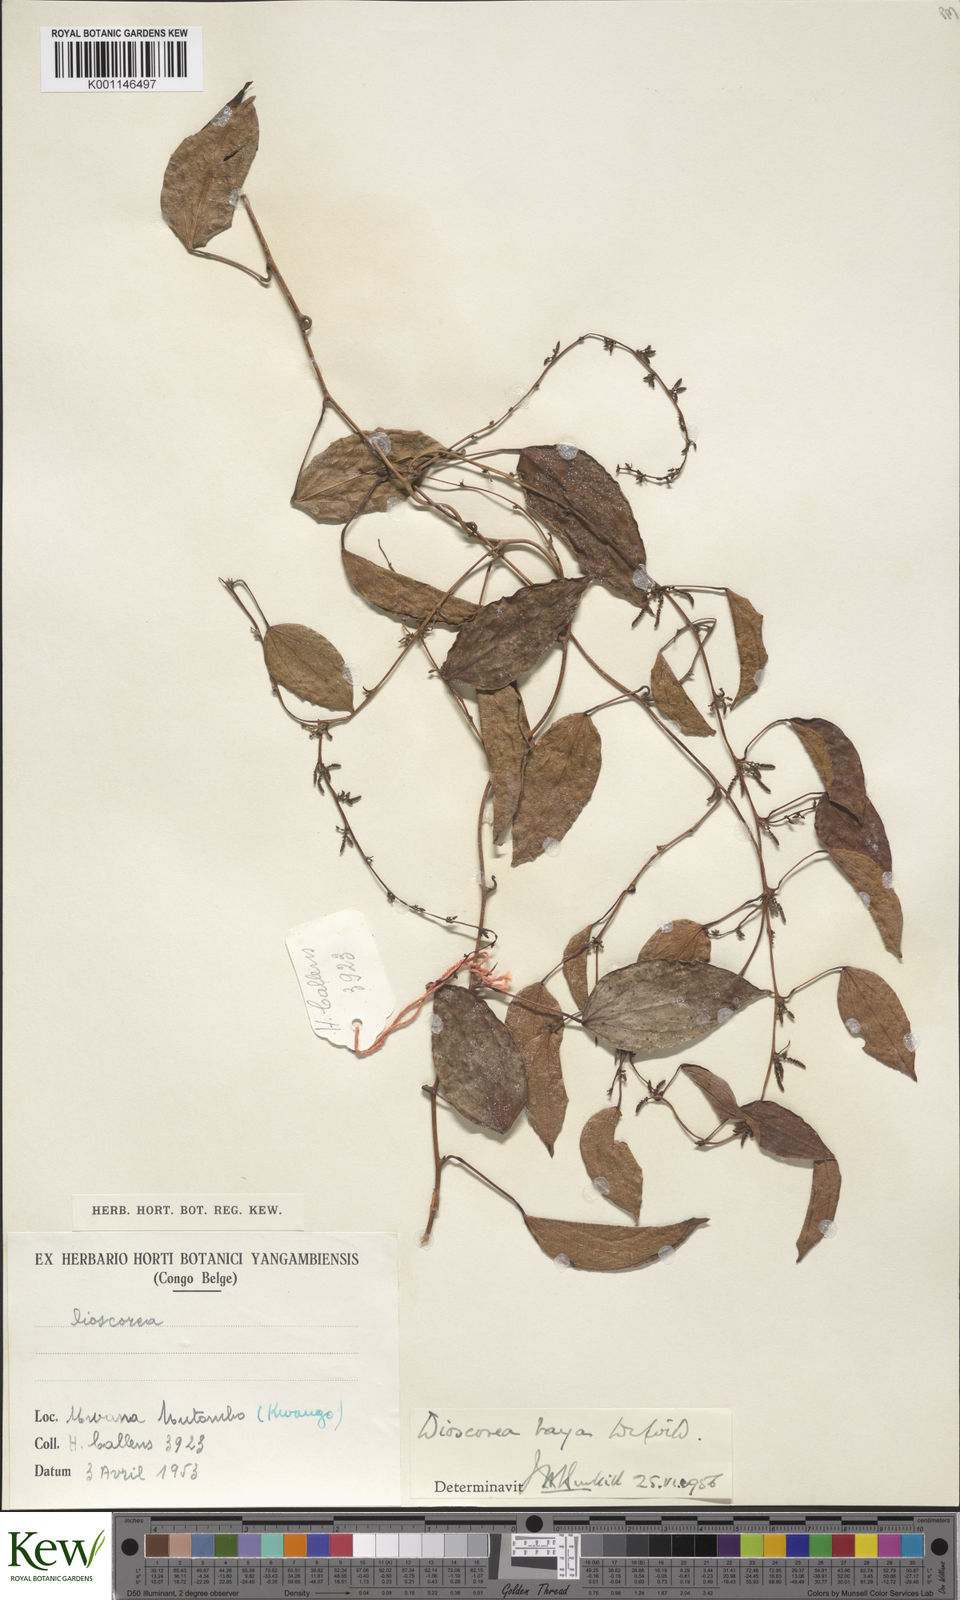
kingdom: Plantae
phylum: Tracheophyta
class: Liliopsida
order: Dioscoreales
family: Dioscoreaceae
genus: Dioscorea
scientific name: Dioscorea baya
